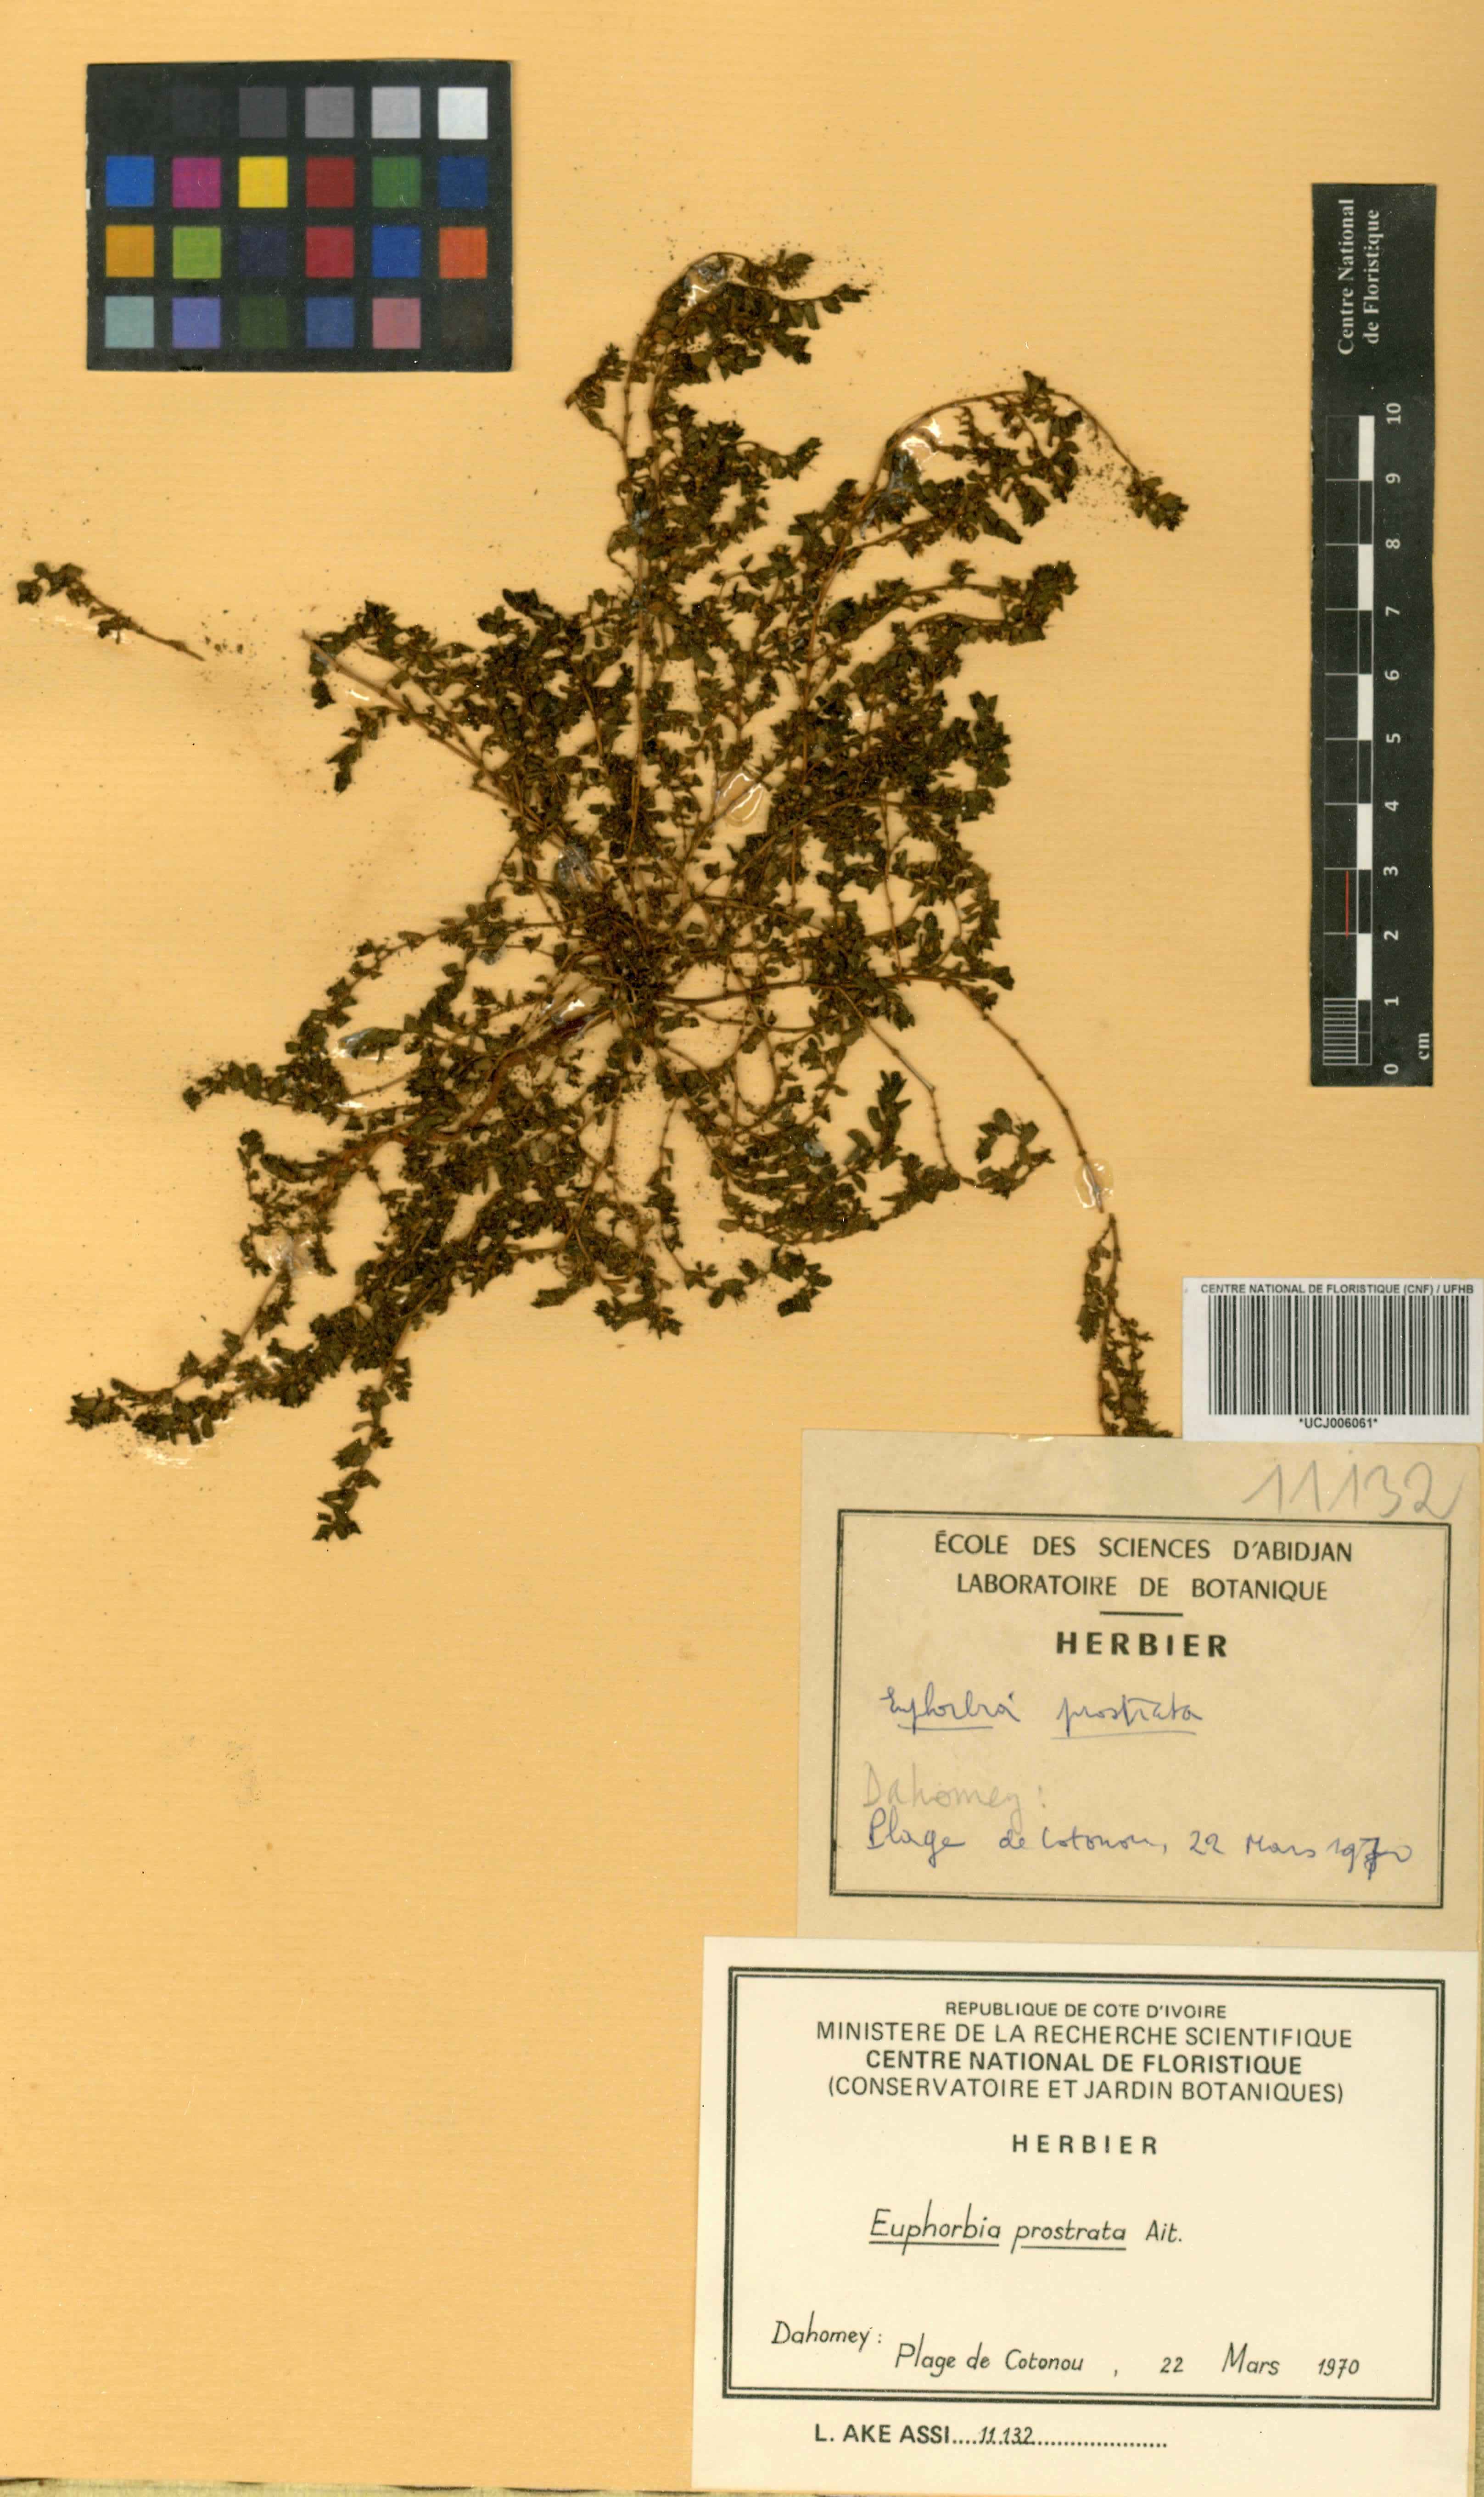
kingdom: Plantae
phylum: Tracheophyta
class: Magnoliopsida
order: Malpighiales
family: Euphorbiaceae
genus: Euphorbia
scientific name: Euphorbia prostrata
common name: Prostrate sandmat
